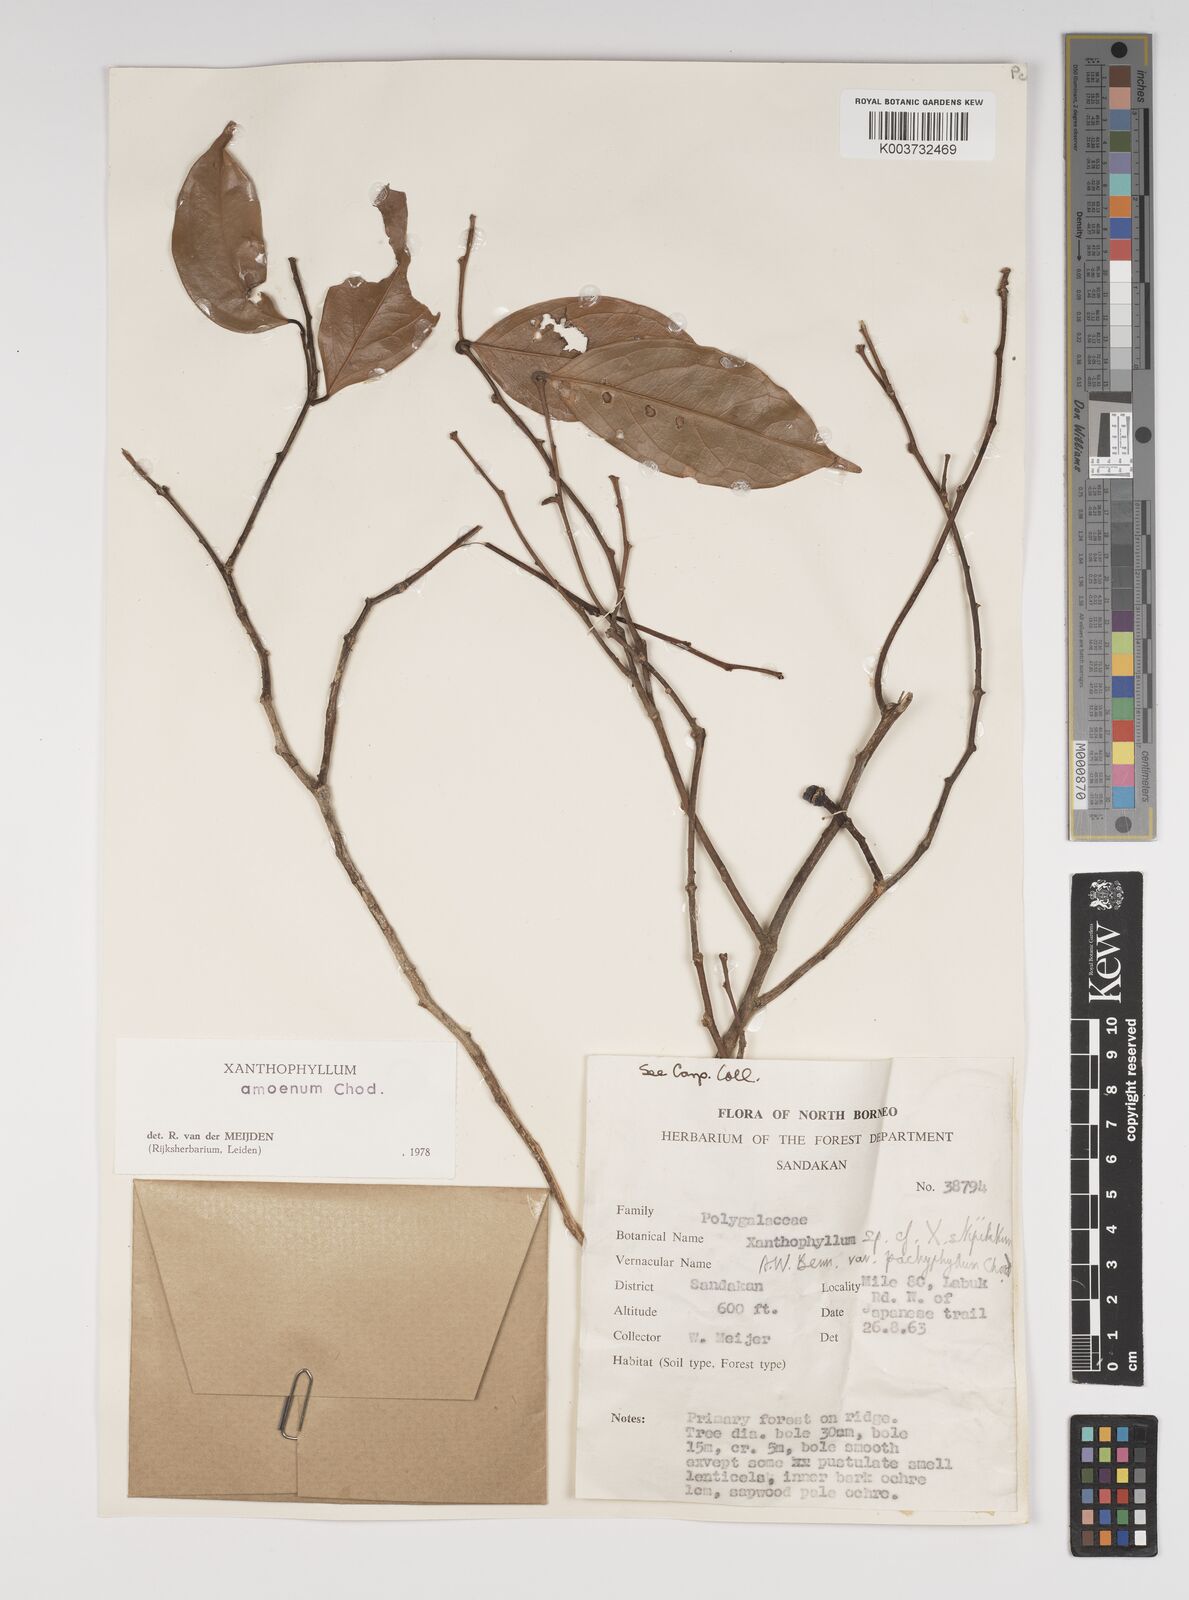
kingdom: Plantae
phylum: Tracheophyta
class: Magnoliopsida
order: Fabales
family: Polygalaceae
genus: Xanthophyllum
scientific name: Xanthophyllum stipitatum
